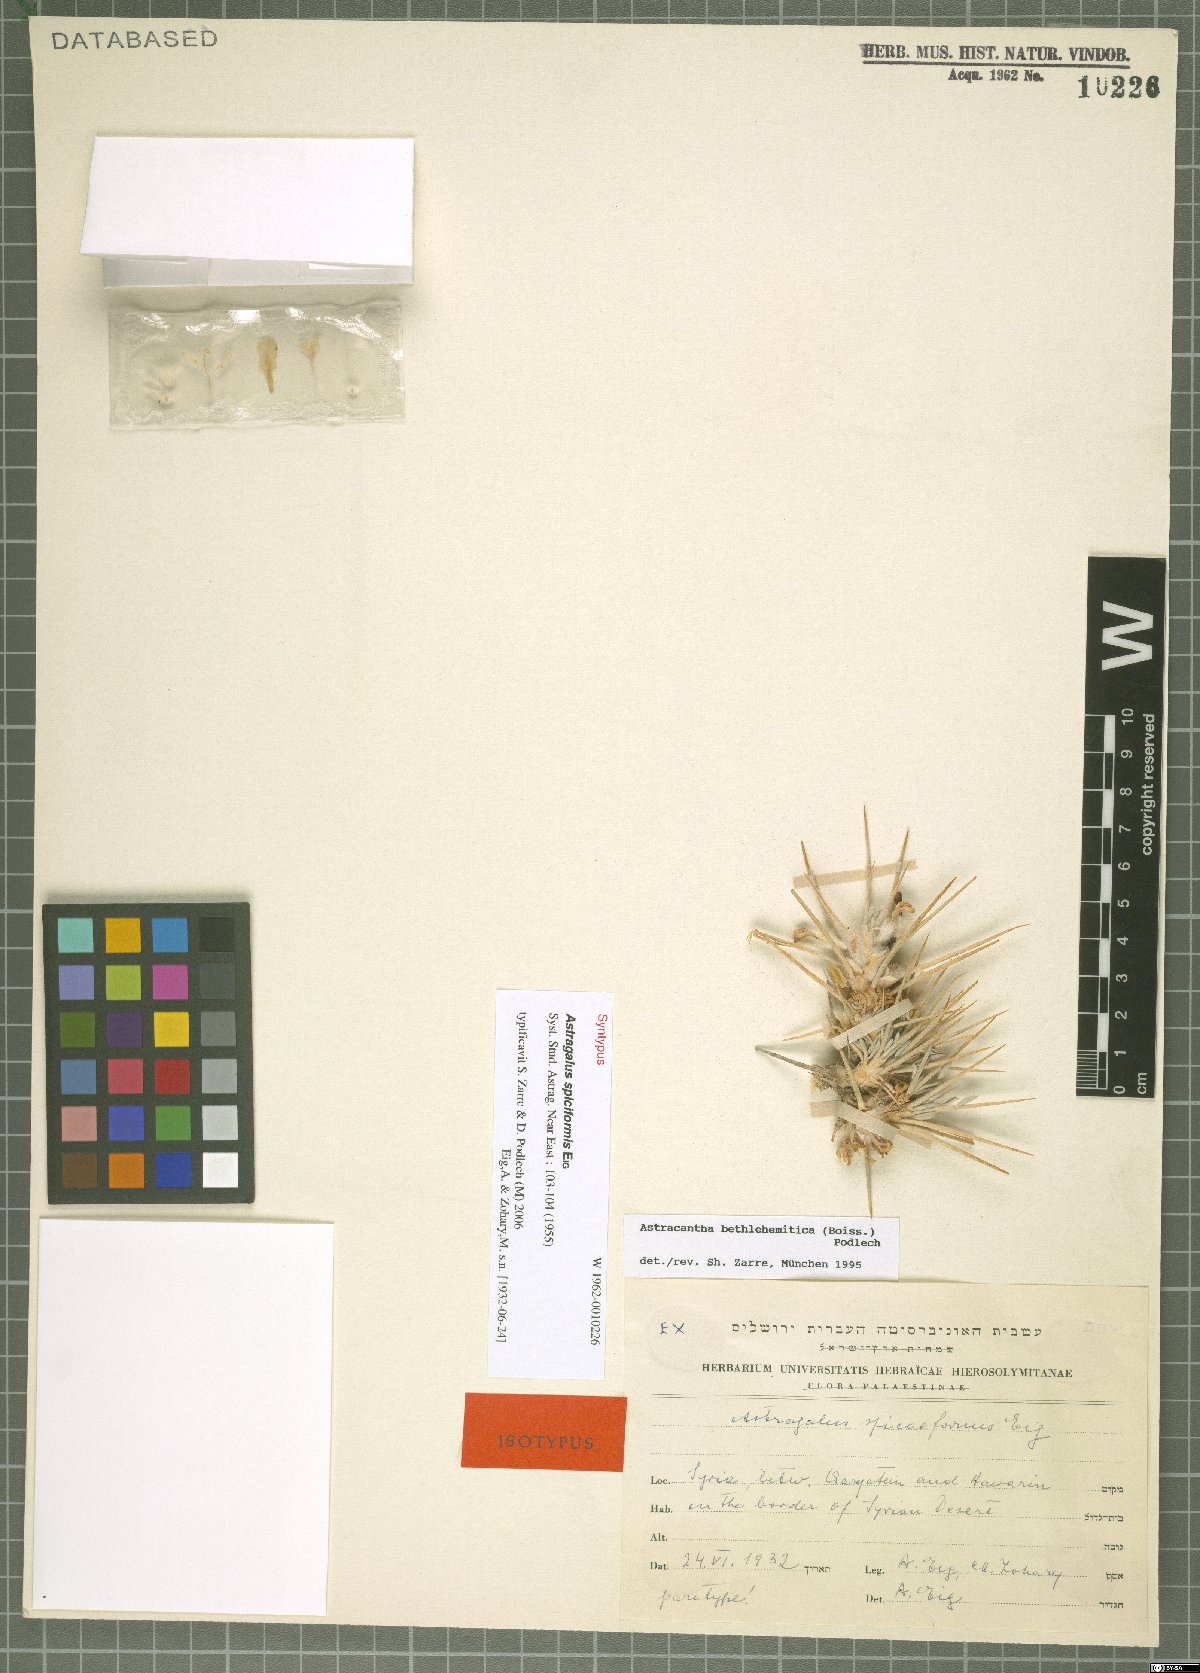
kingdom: Plantae
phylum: Tracheophyta
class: Magnoliopsida
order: Fabales
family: Fabaceae
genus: Astragalus
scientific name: Astragalus bethlehemiticus
